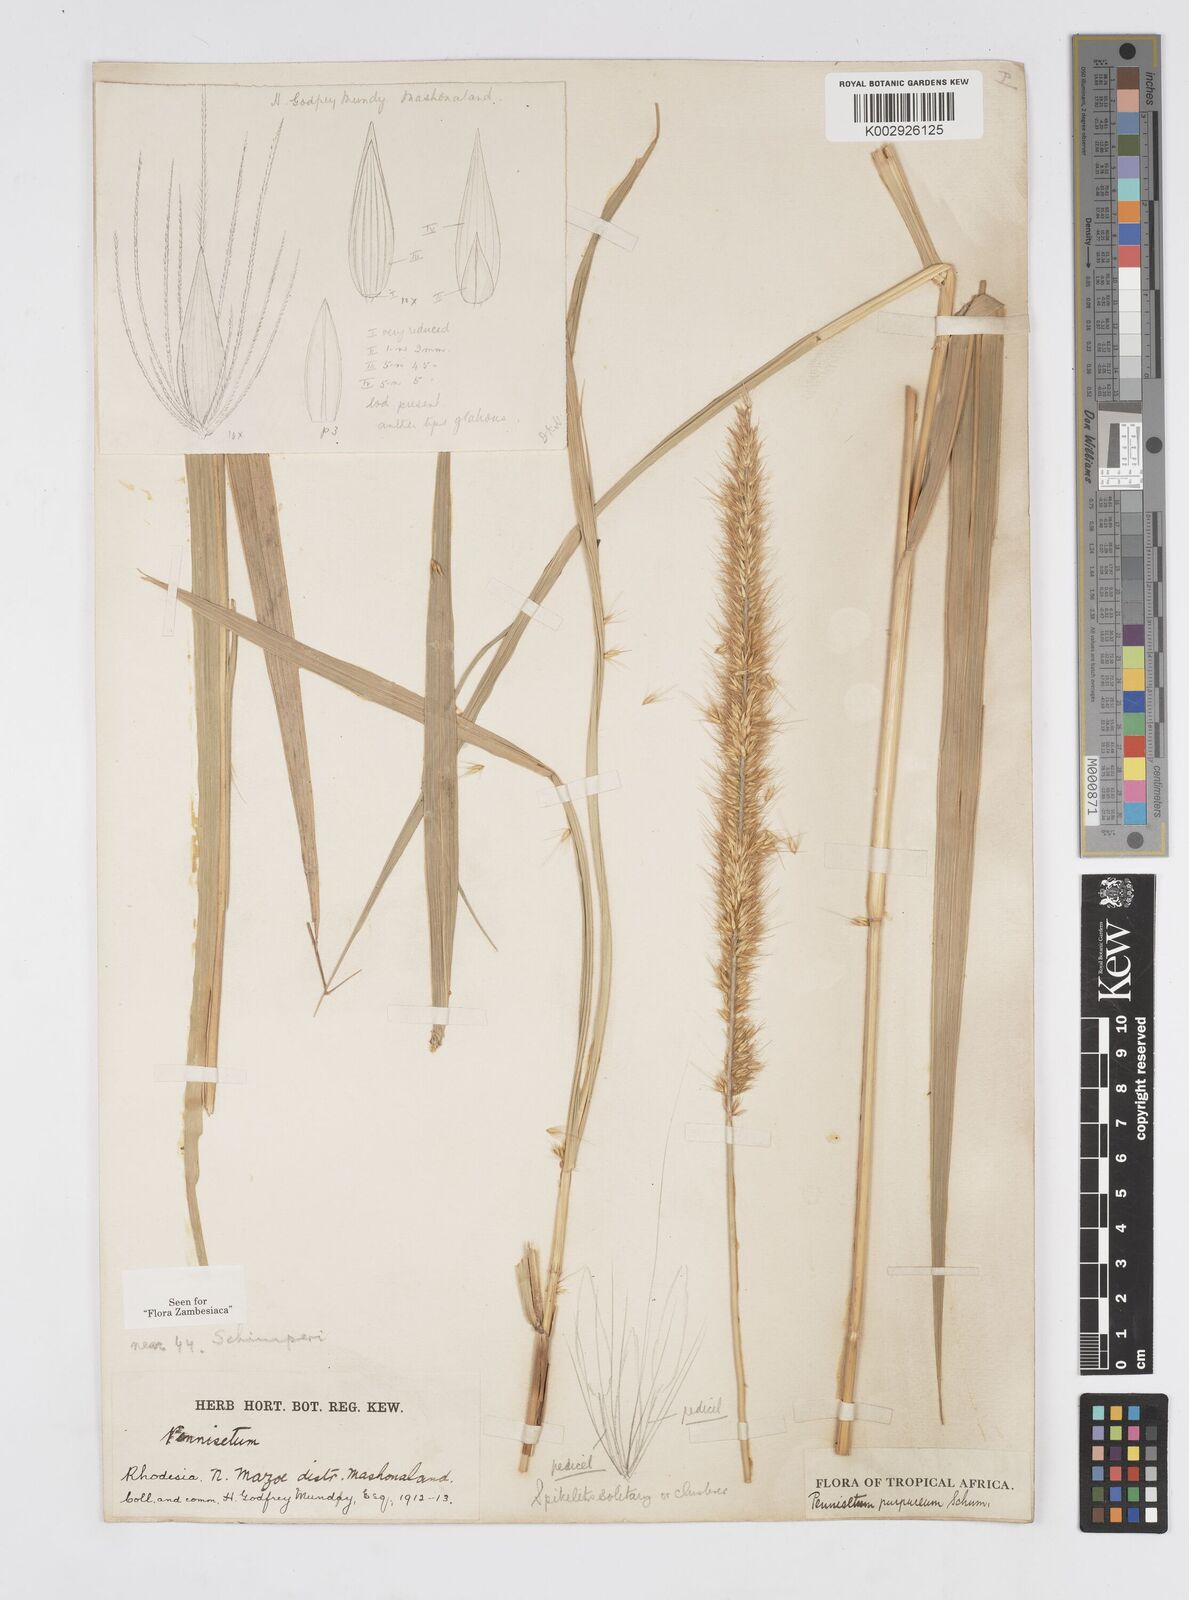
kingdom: Plantae
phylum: Tracheophyta
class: Liliopsida
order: Poales
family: Poaceae
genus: Cenchrus
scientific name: Cenchrus purpureus
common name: Elephant grass
